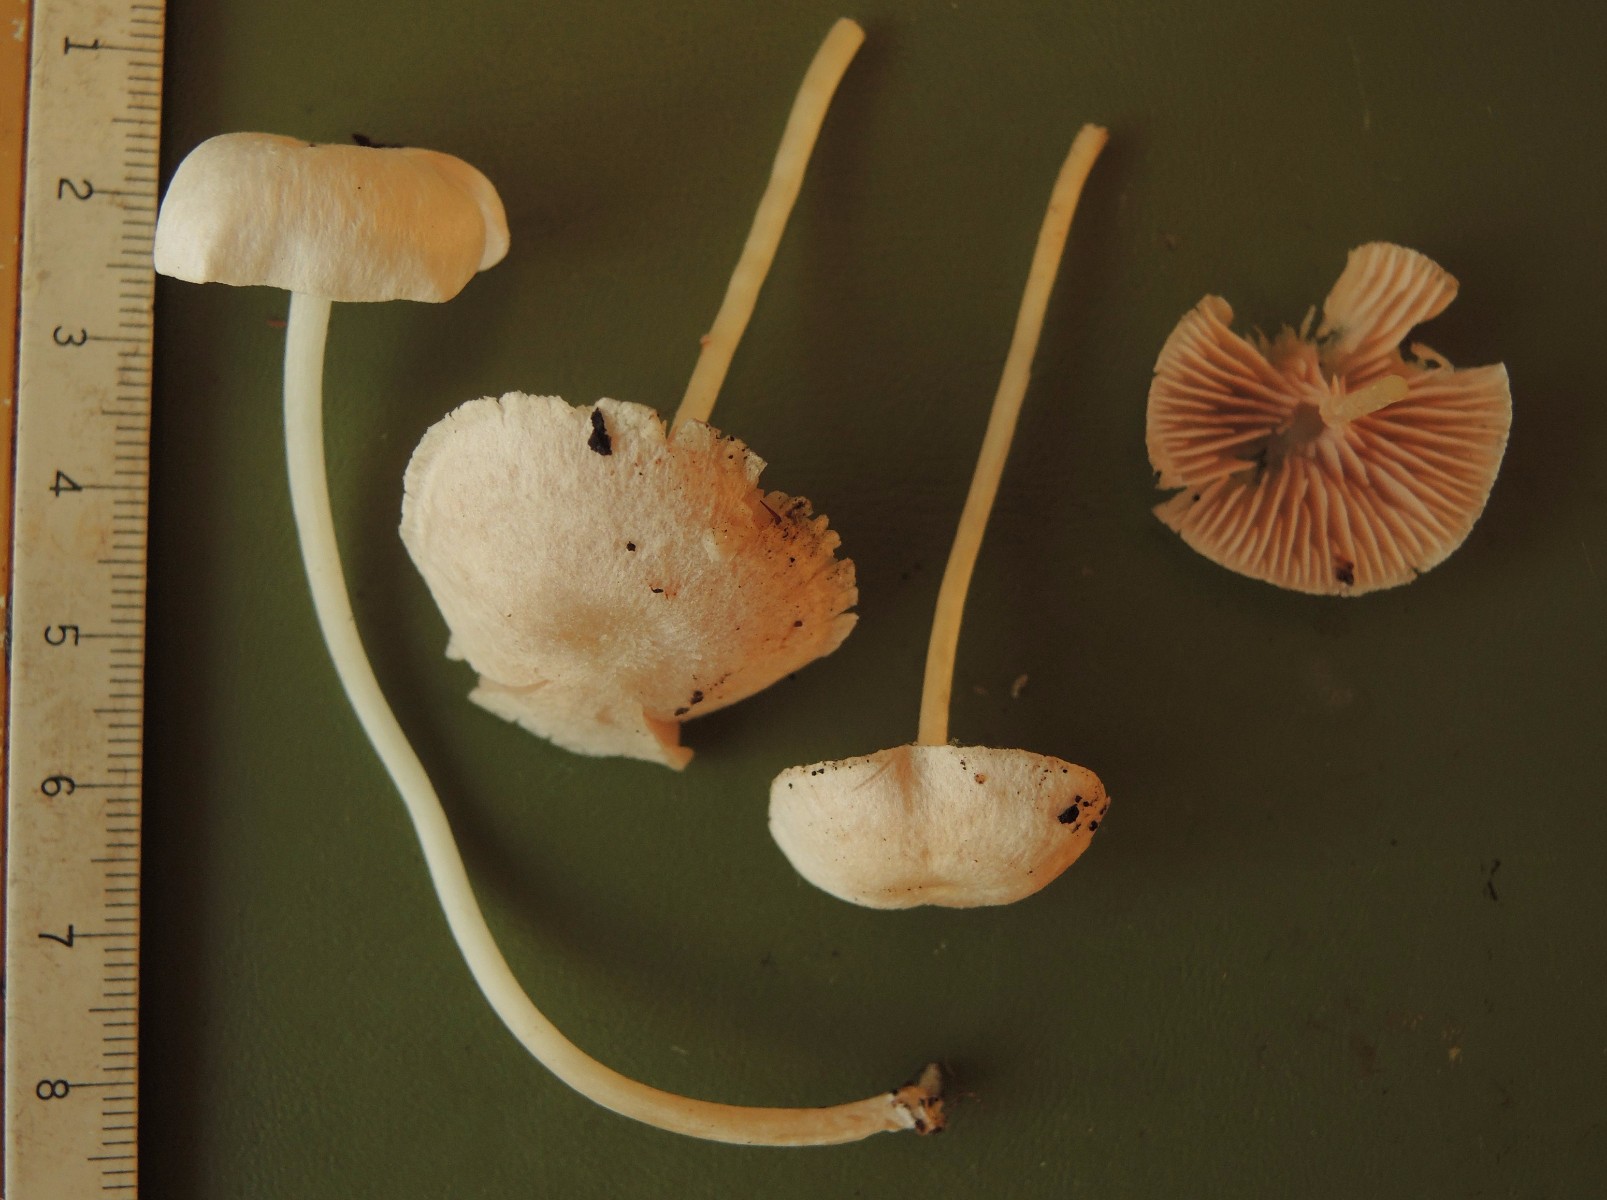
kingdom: Fungi
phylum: Basidiomycota
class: Agaricomycetes
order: Agaricales
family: Entolomataceae
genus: Entoloma
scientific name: Entoloma sericellum
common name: silkehvid rødblad
